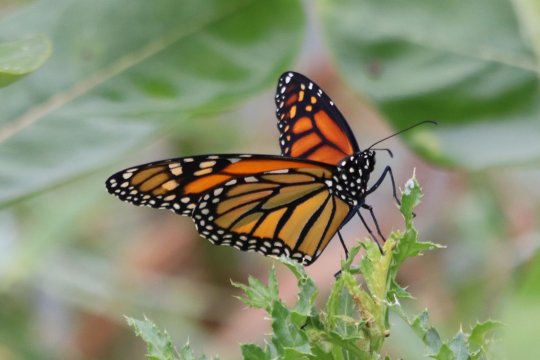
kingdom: Animalia
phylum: Arthropoda
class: Insecta
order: Lepidoptera
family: Nymphalidae
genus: Danaus
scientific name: Danaus plexippus
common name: Monarch
